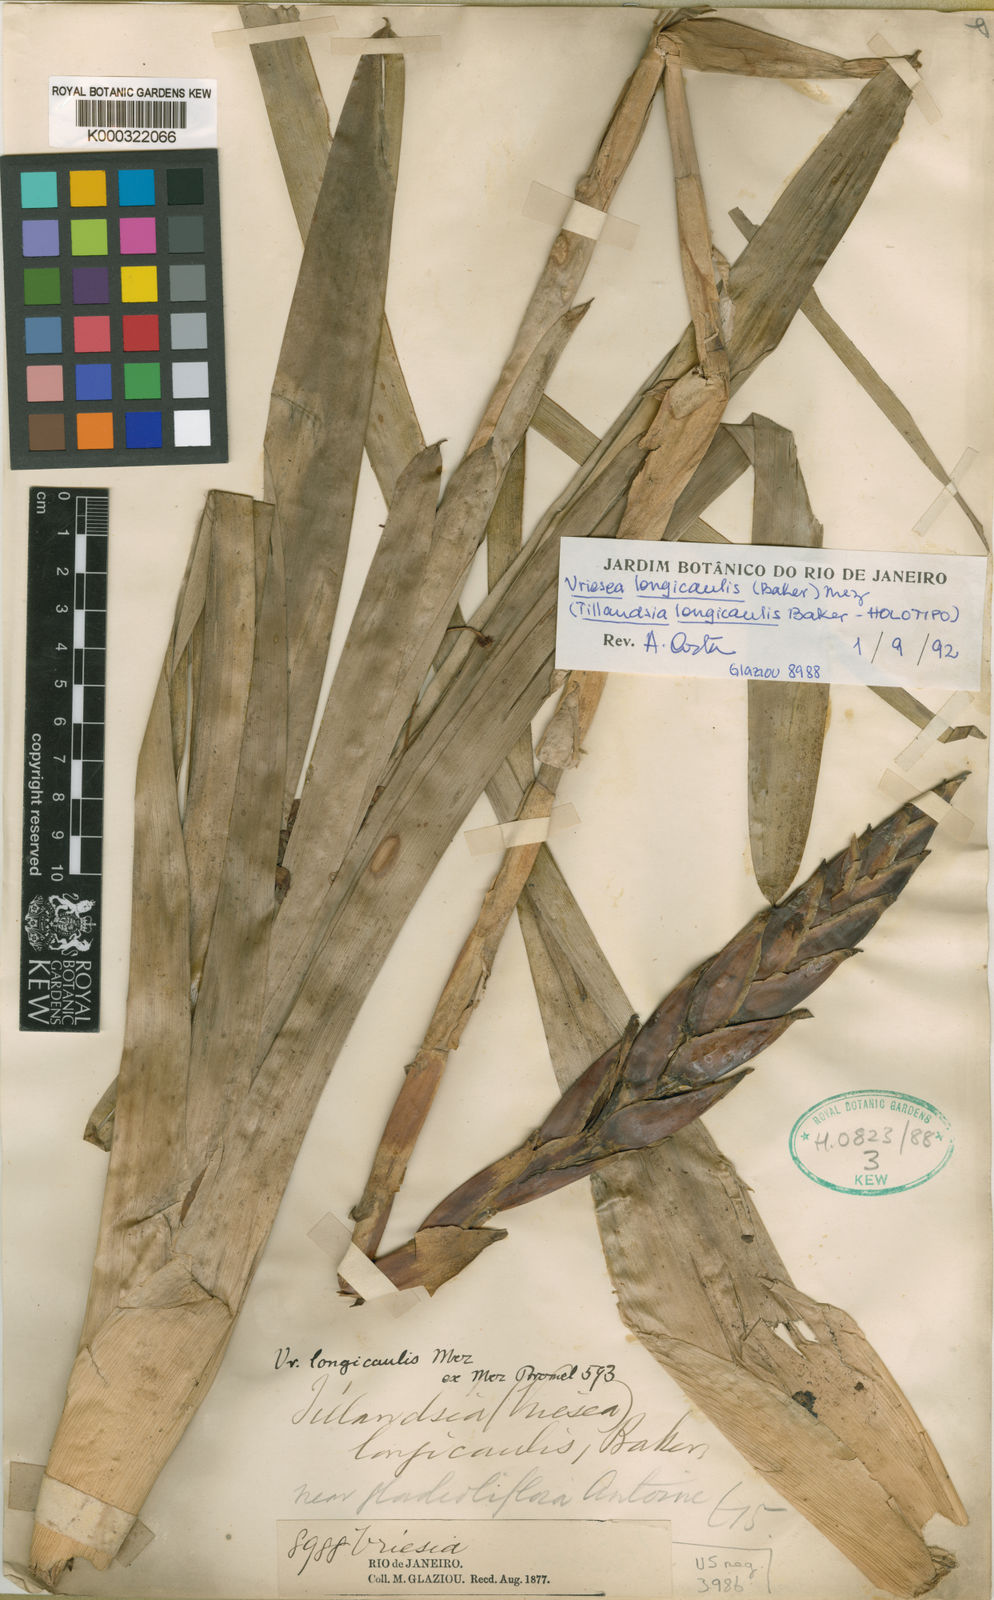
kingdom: Plantae
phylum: Tracheophyta
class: Liliopsida
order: Poales
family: Bromeliaceae
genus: Vriesea
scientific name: Vriesea longicaulis
